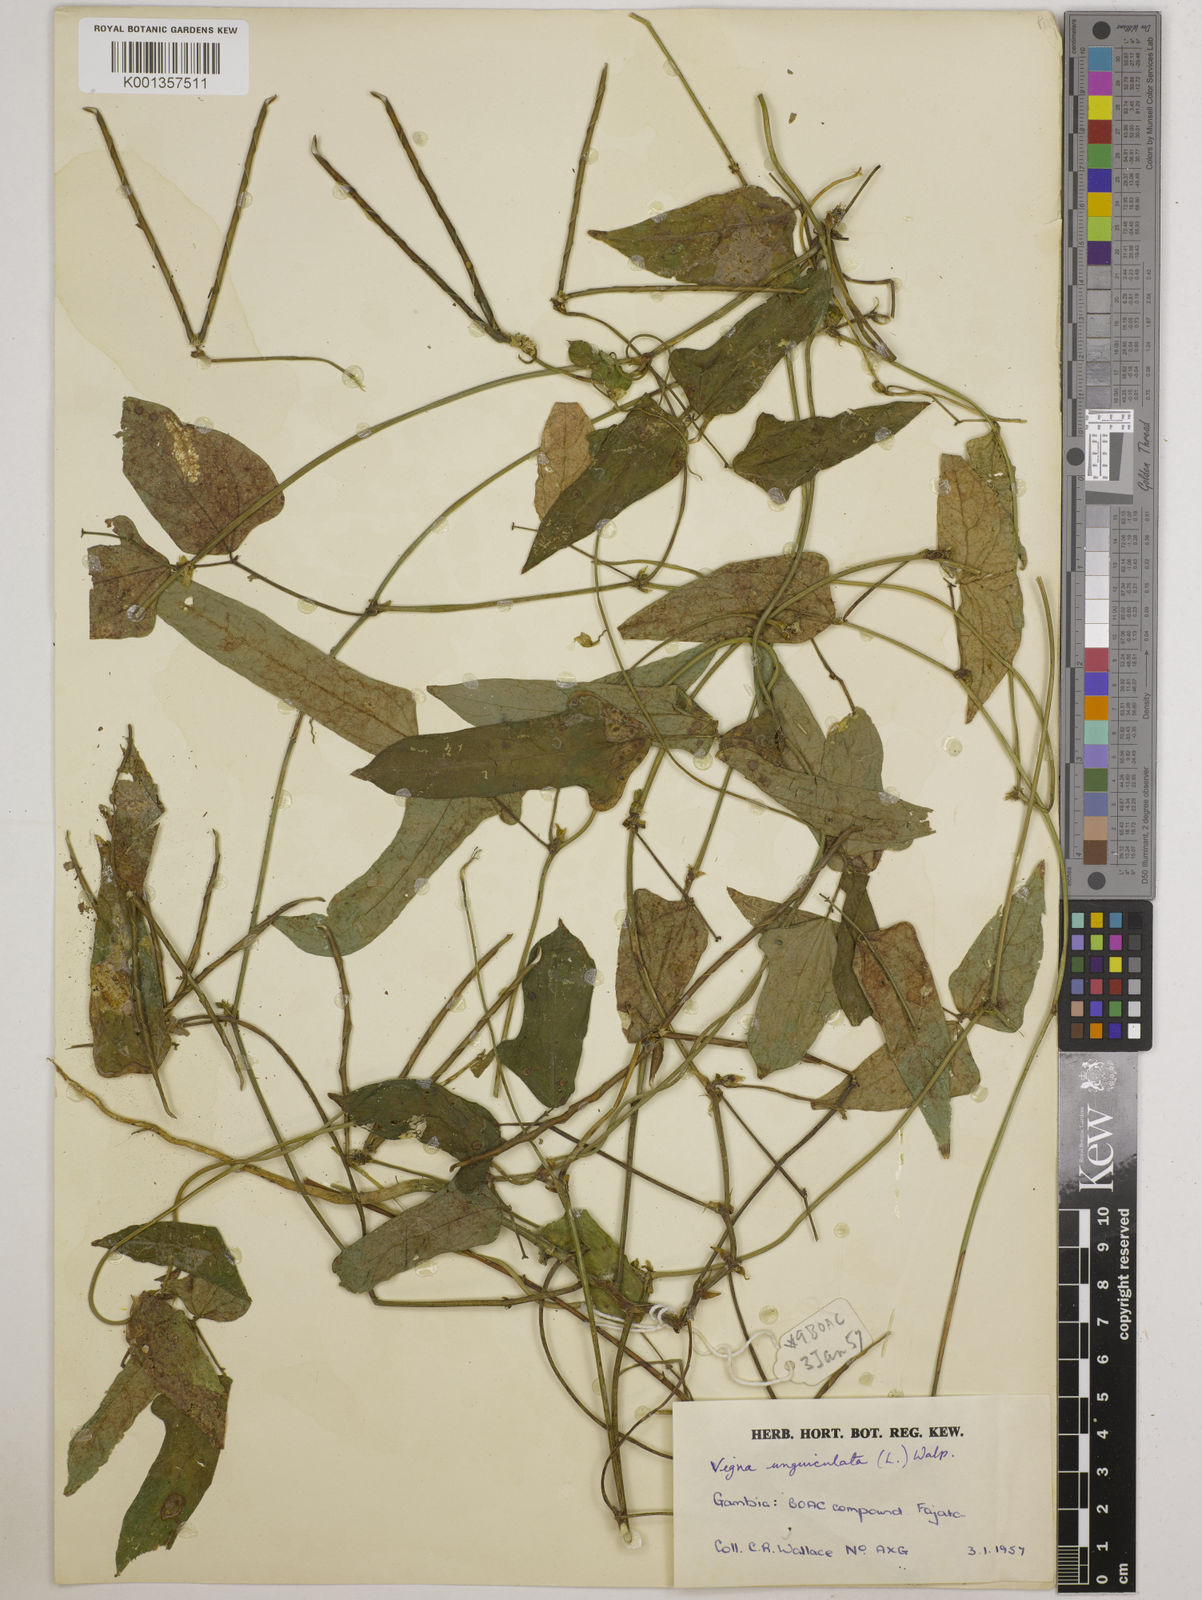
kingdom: Plantae
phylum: Tracheophyta
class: Magnoliopsida
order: Fabales
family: Fabaceae
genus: Vigna
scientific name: Vigna
